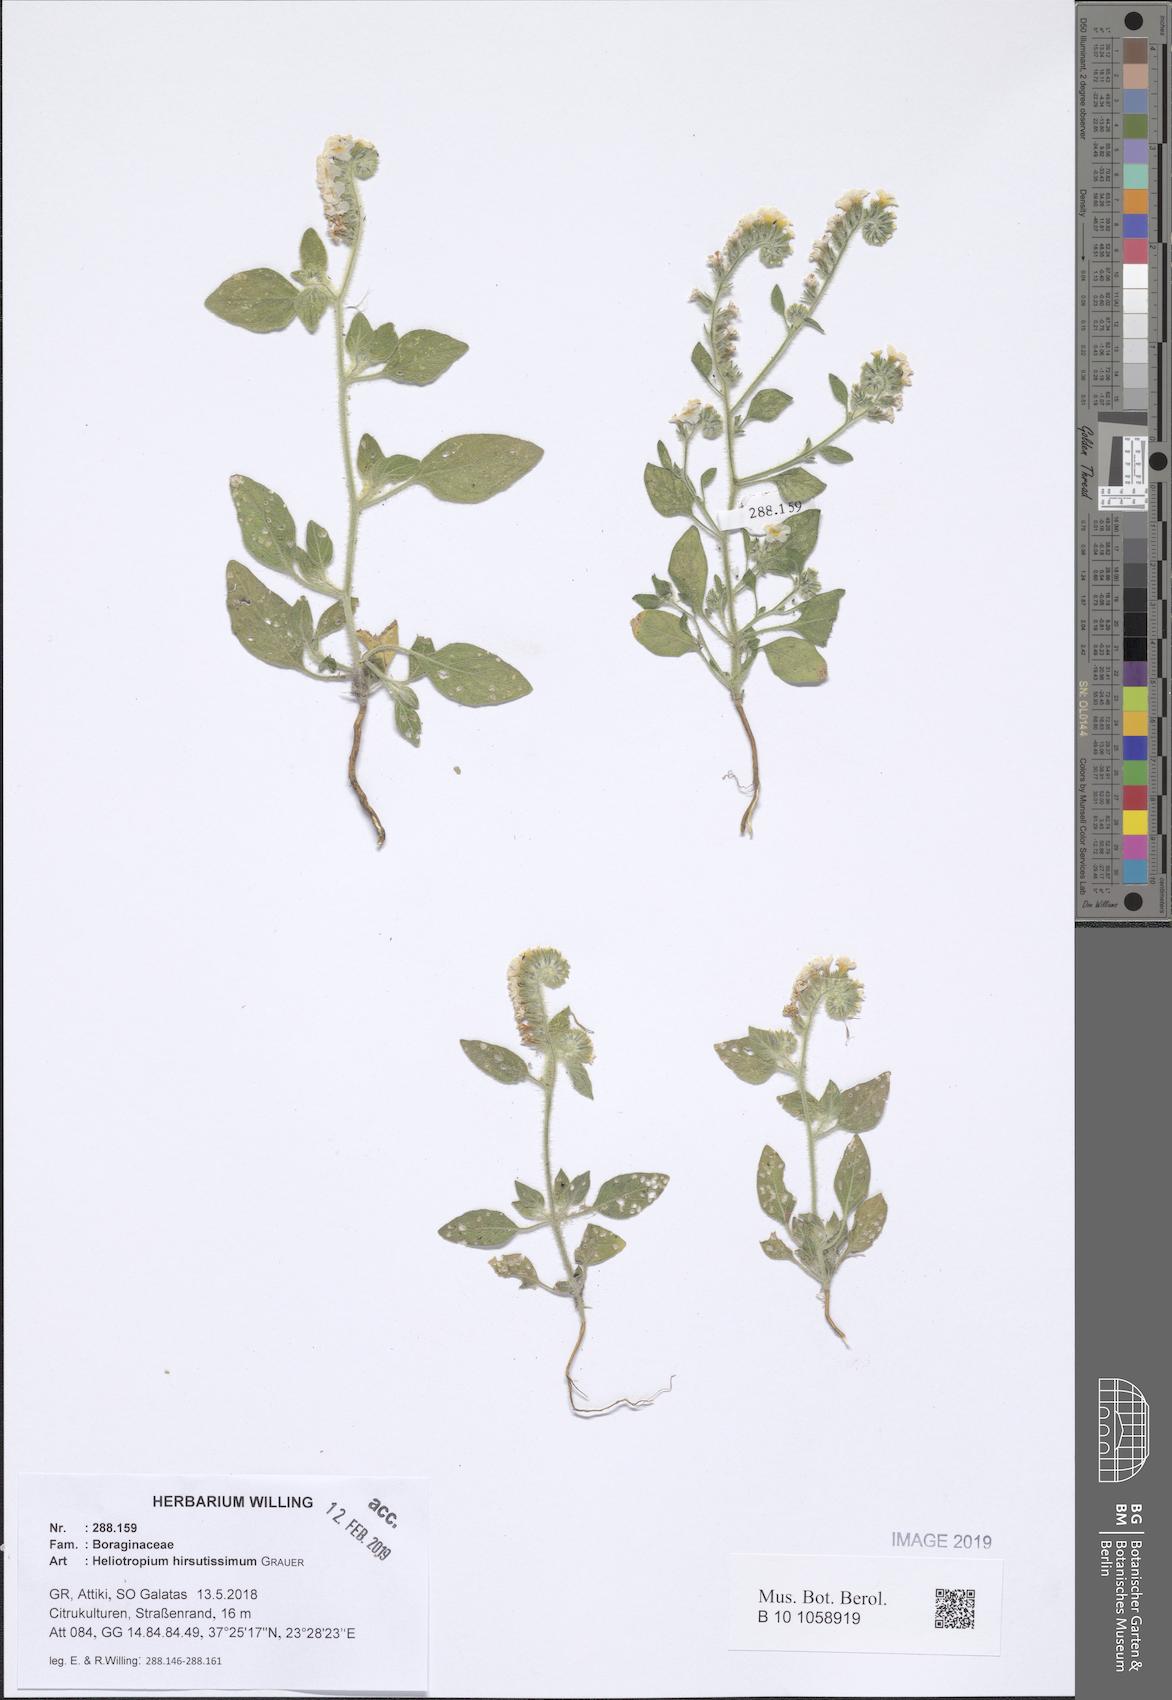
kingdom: Plantae
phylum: Tracheophyta
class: Magnoliopsida
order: Boraginales
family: Heliotropiaceae
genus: Heliotropium
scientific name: Heliotropium hirsutissimum
